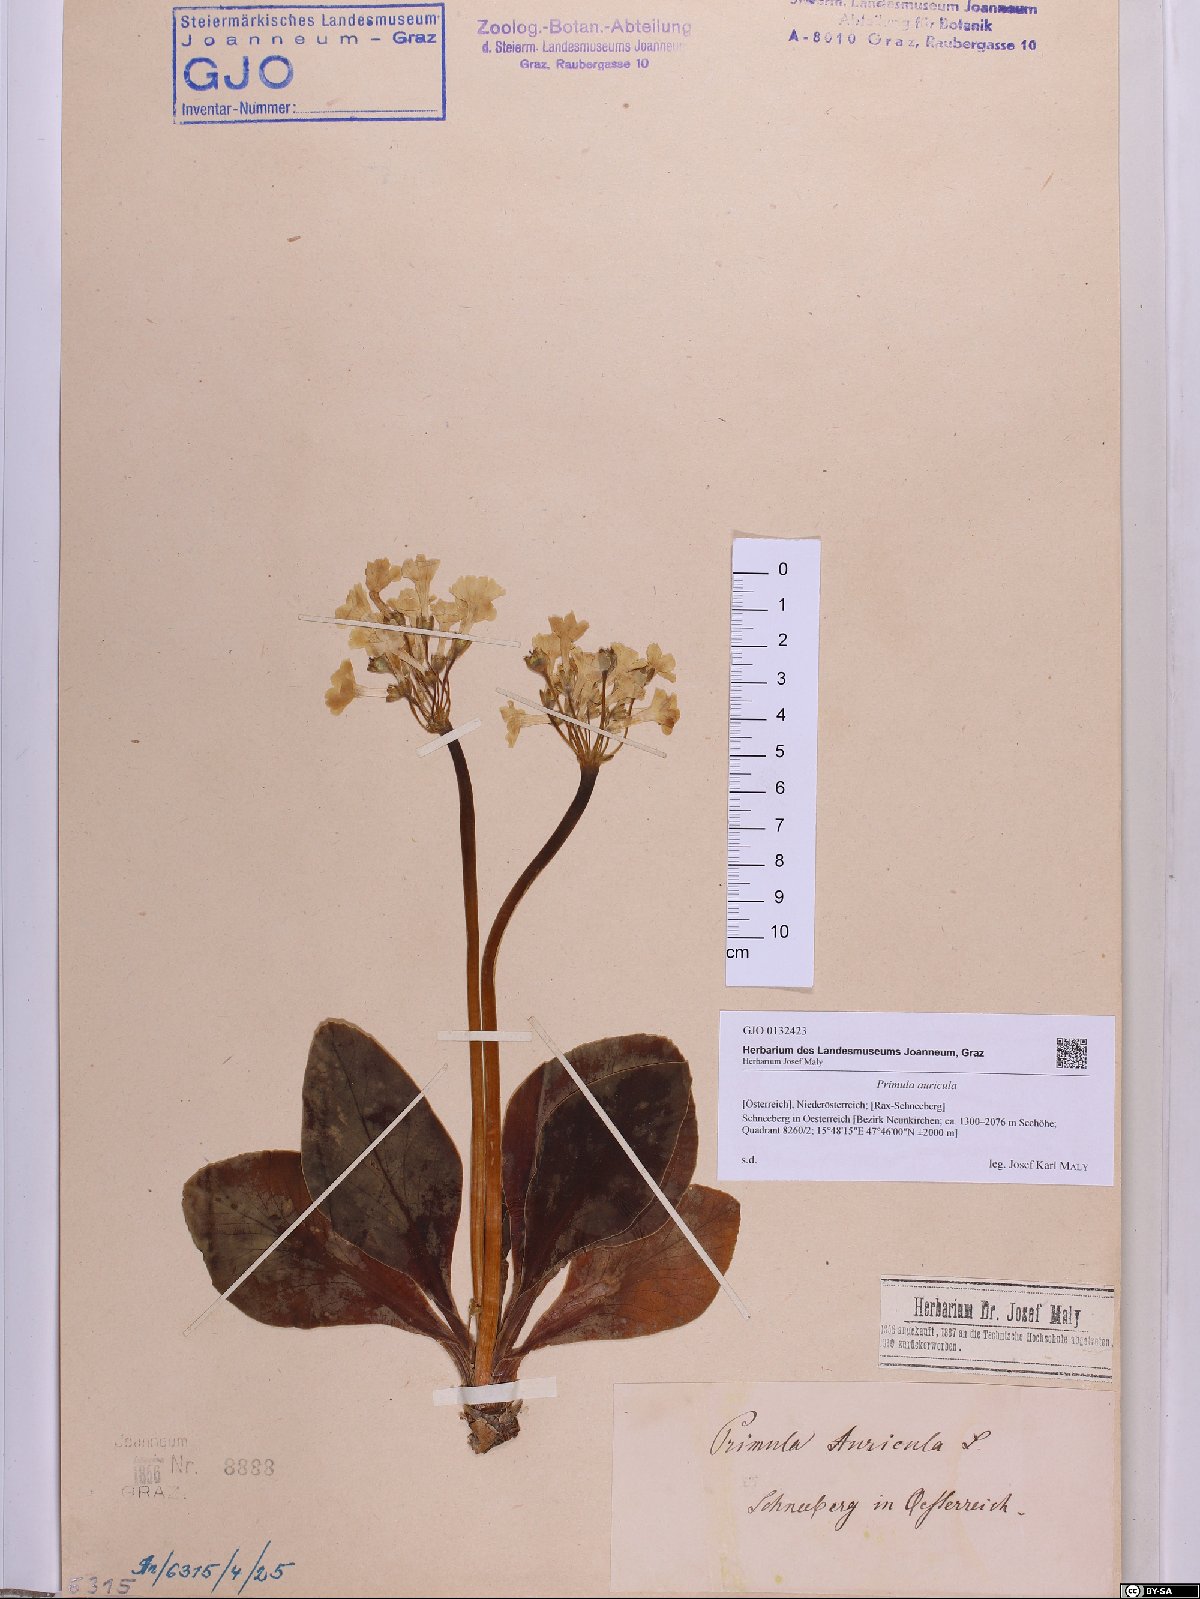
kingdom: Plantae
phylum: Tracheophyta
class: Magnoliopsida
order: Ericales
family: Primulaceae
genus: Primula
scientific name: Primula auricula
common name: Auricula
